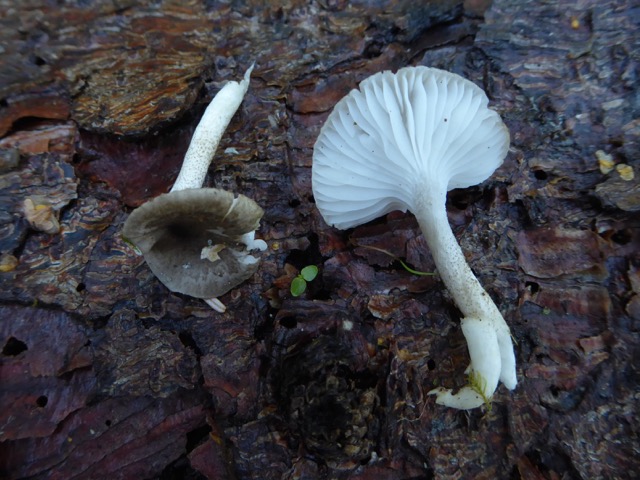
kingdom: Fungi
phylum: Basidiomycota
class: Agaricomycetes
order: Agaricales
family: Hygrophoraceae
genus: Hygrophorus
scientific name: Hygrophorus pustulatus
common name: mørkprikket sneglehat
